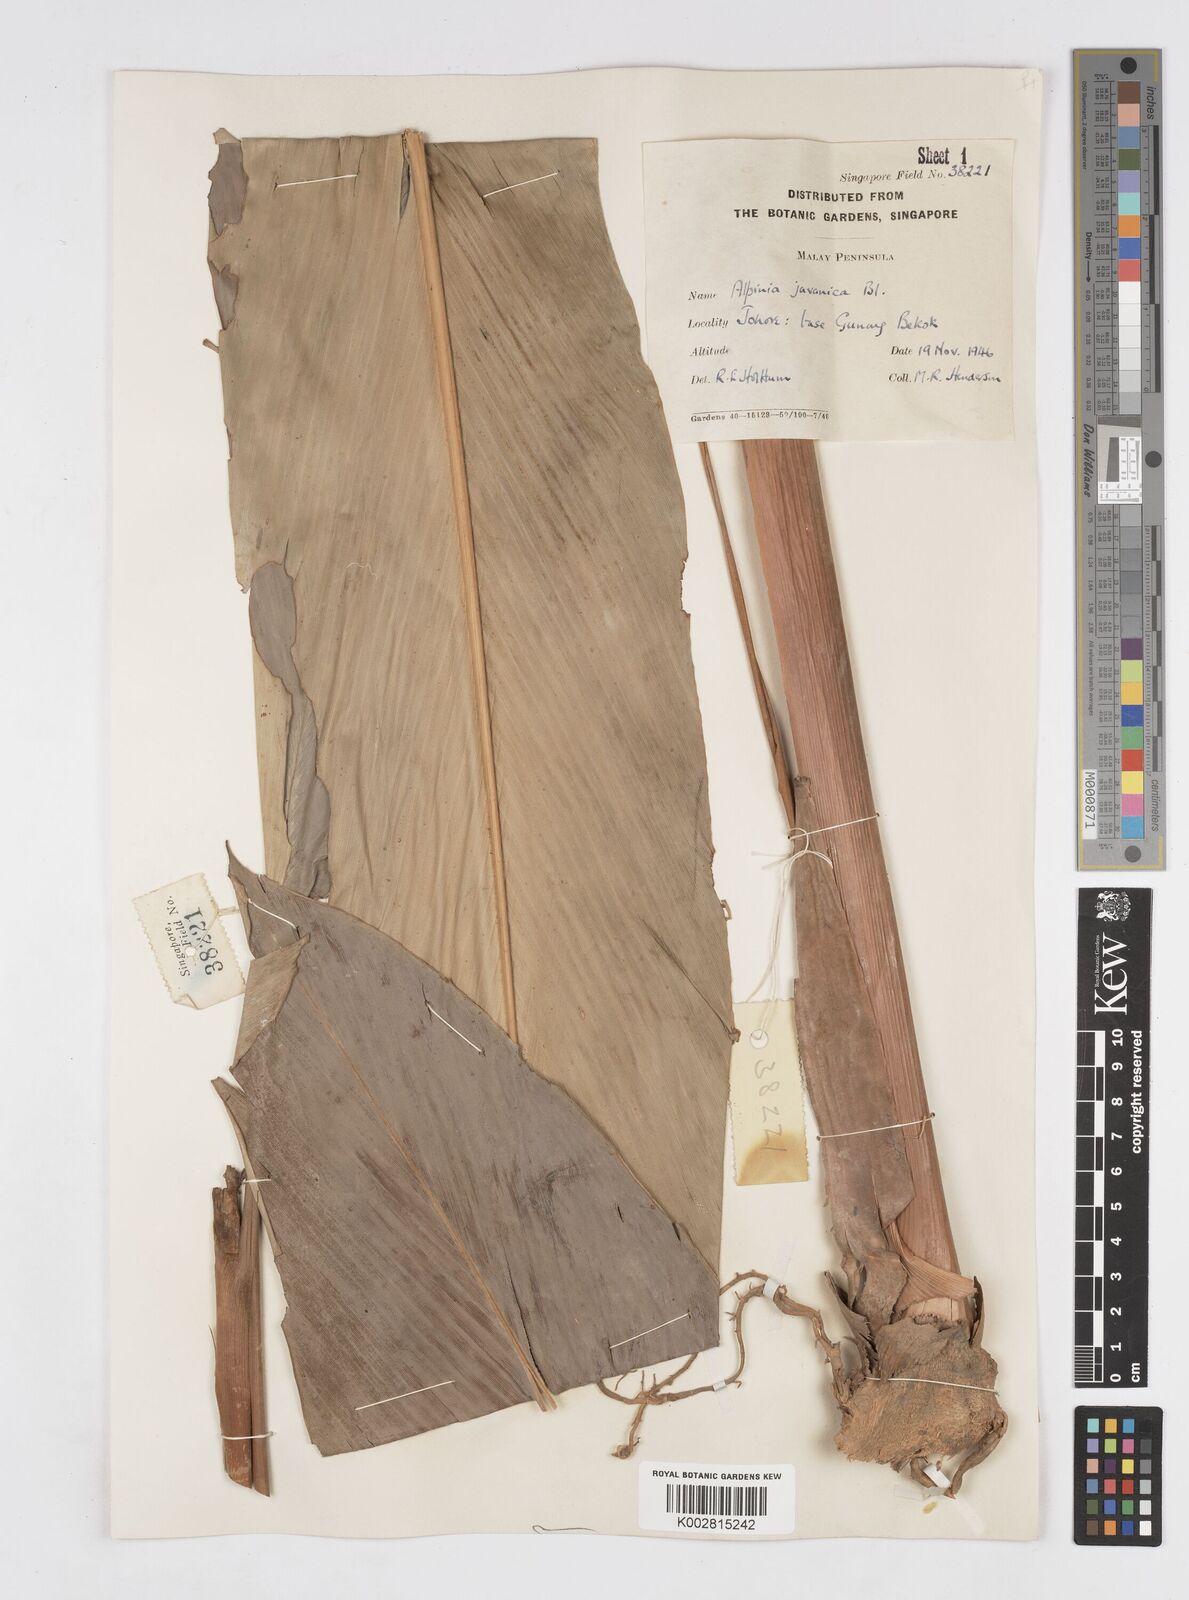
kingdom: Plantae
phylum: Tracheophyta
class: Liliopsida
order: Zingiberales
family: Zingiberaceae
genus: Alpinia
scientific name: Alpinia javanica
